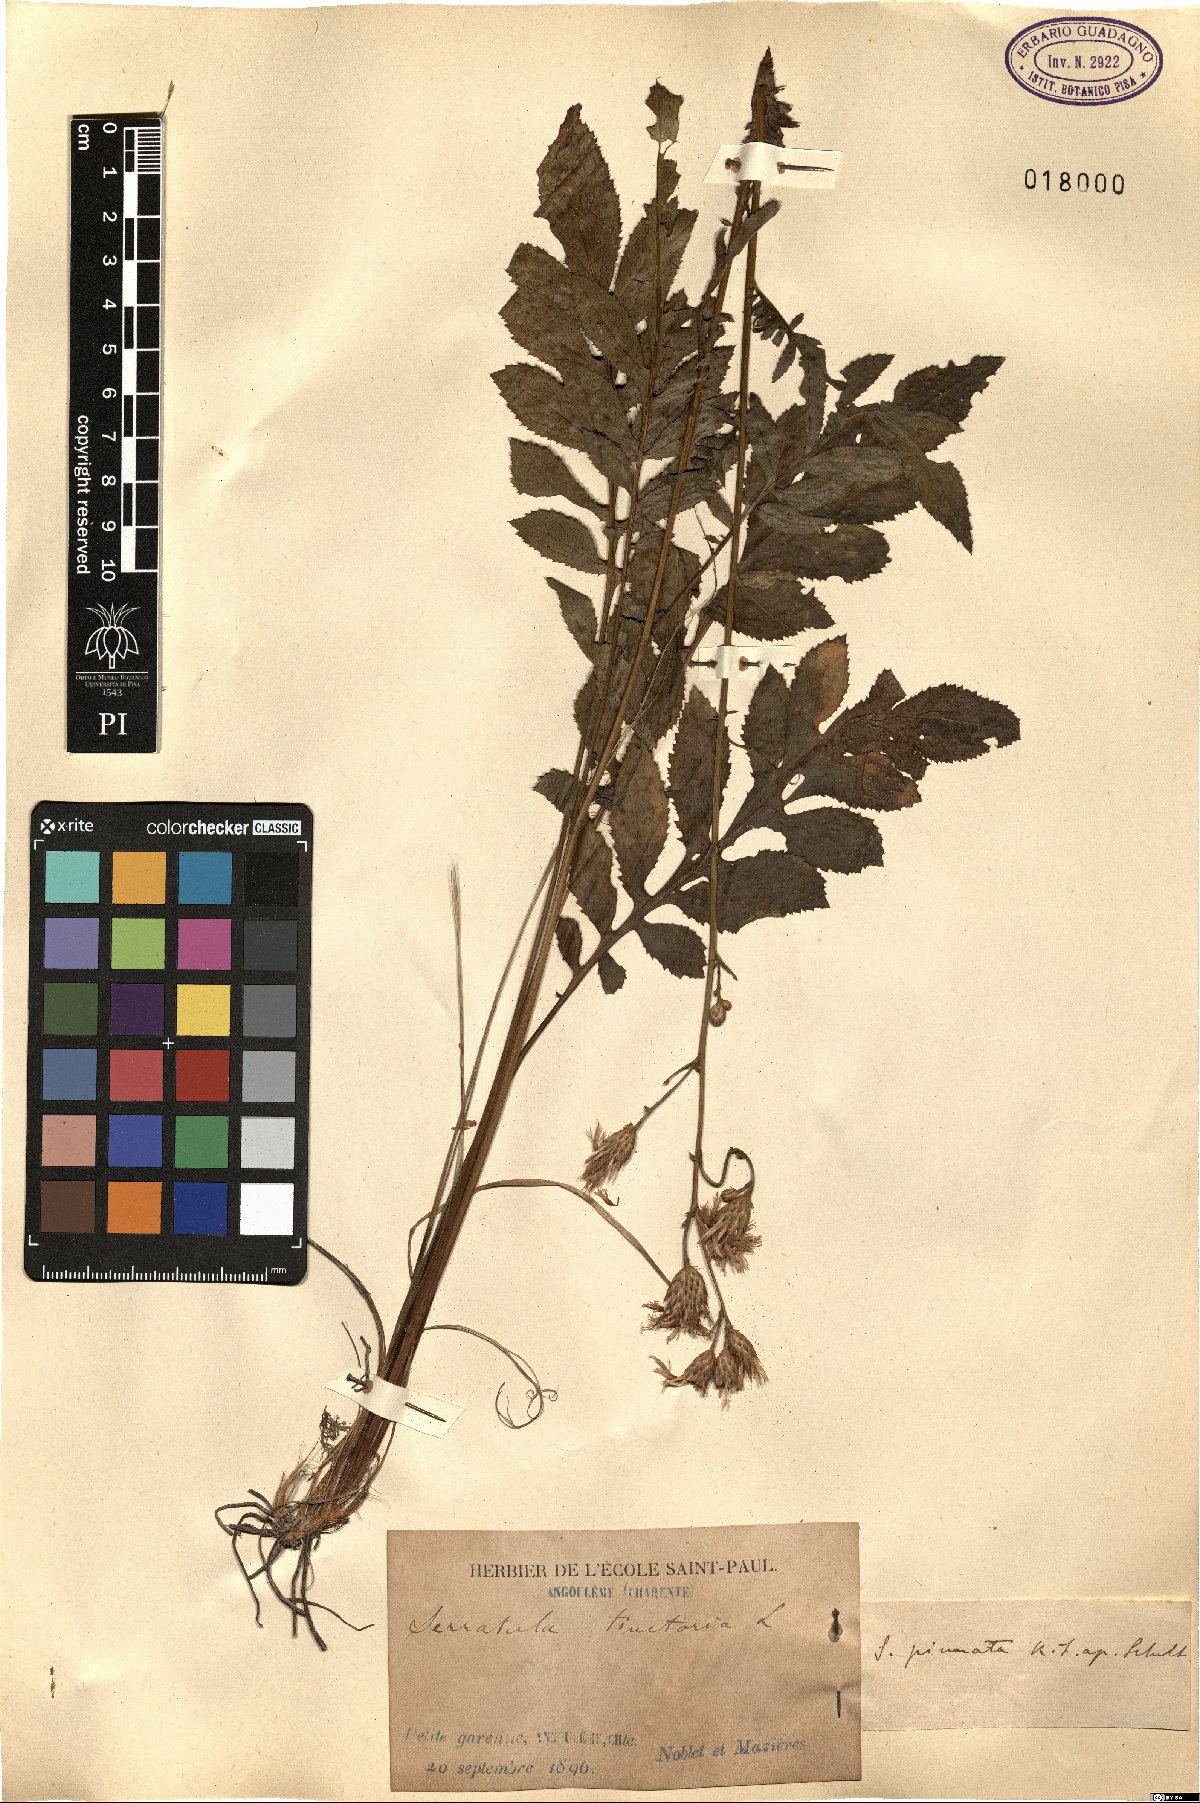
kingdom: Plantae
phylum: Tracheophyta
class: Magnoliopsida
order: Asterales
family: Asteraceae
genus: Serratula
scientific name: Serratula tinctoria
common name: Saw-wort
